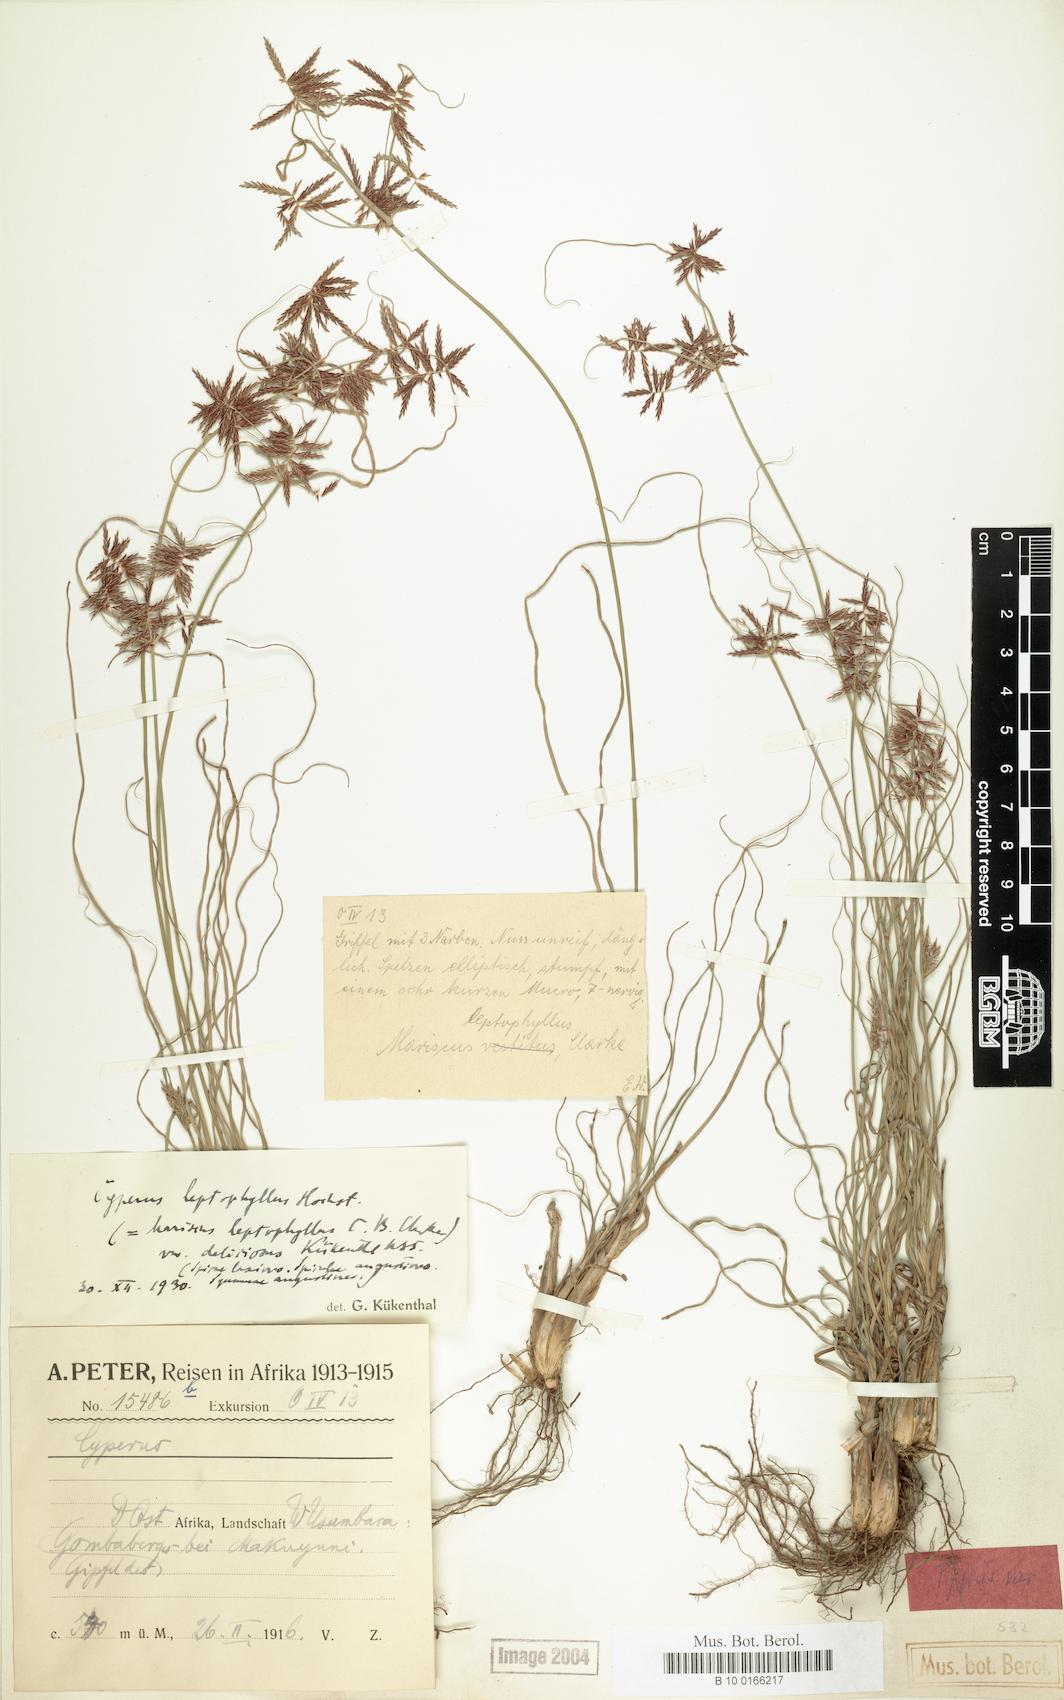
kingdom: Plantae
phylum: Tracheophyta
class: Liliopsida
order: Poales
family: Cyperaceae
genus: Cyperus
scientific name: Cyperus amauropus
